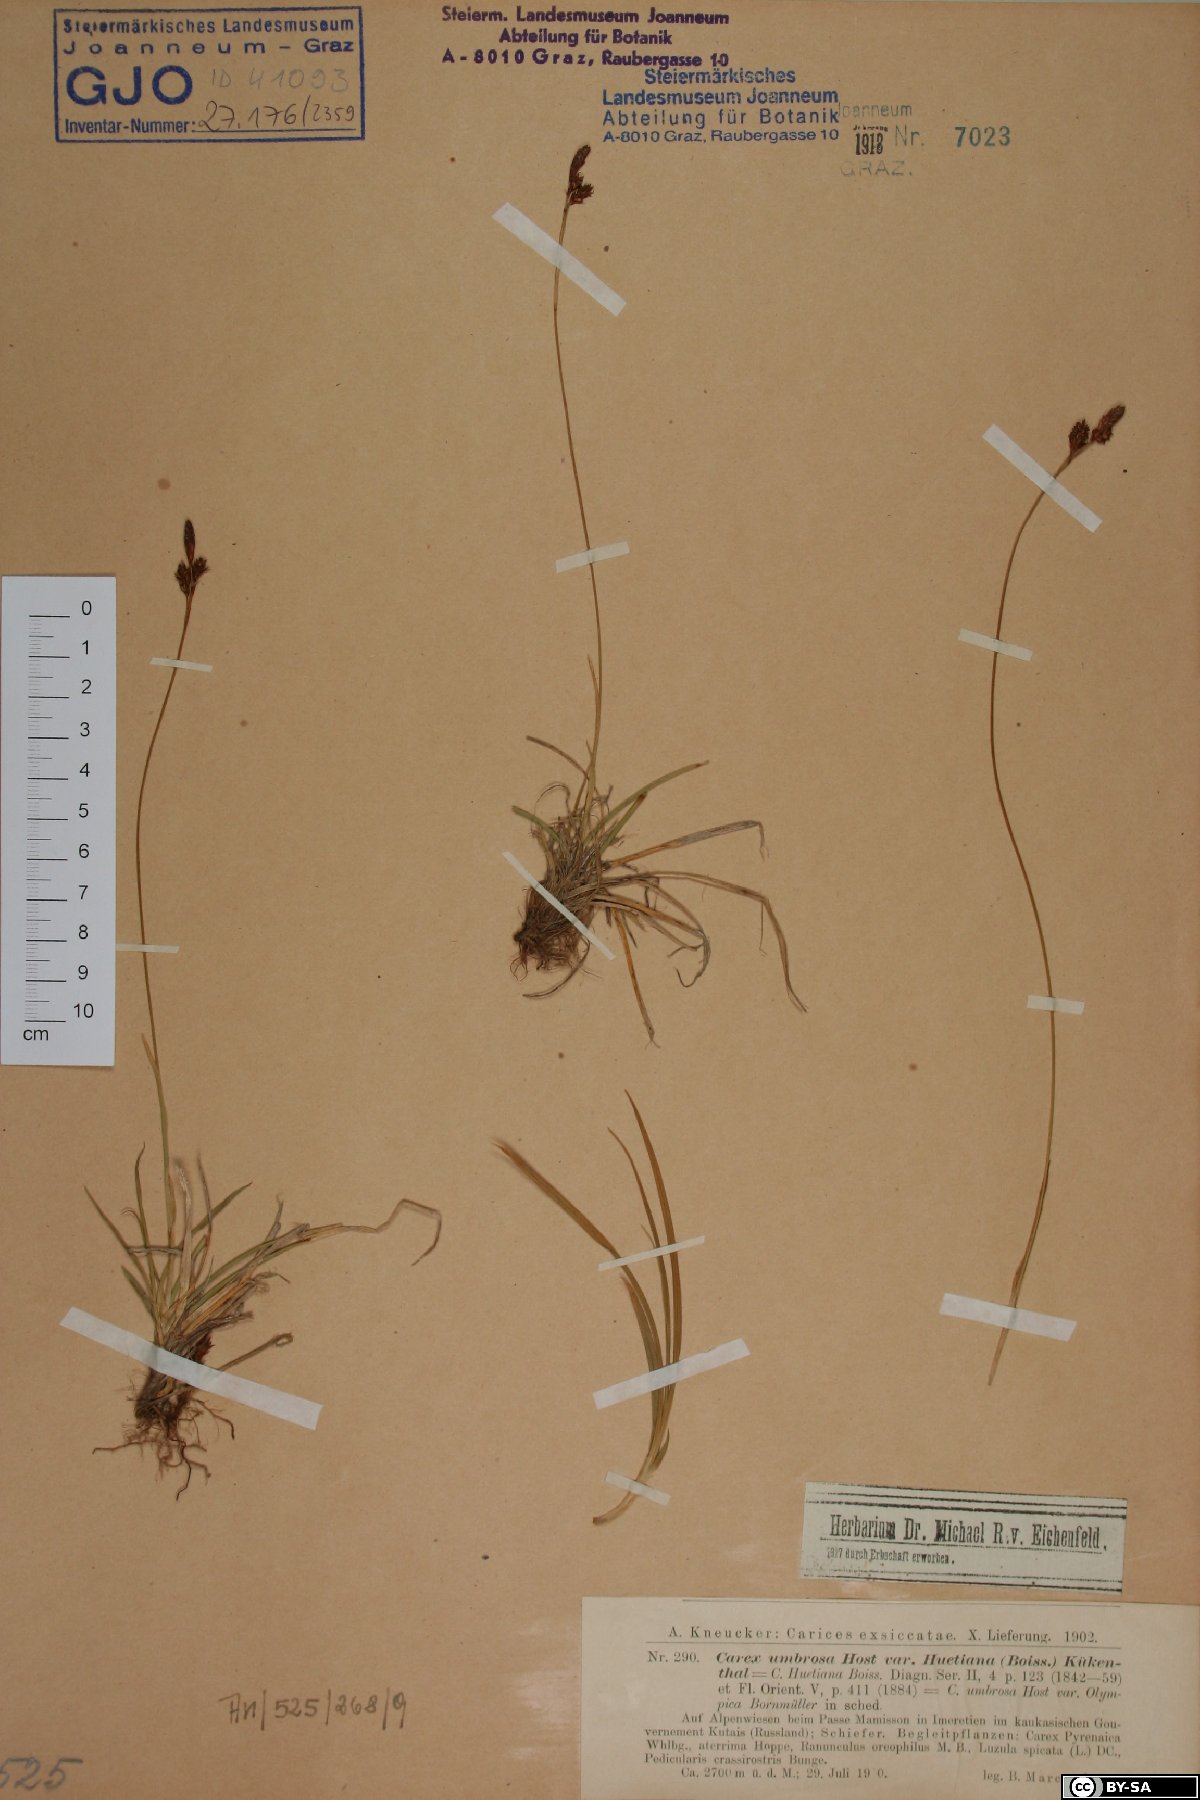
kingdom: Plantae
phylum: Tracheophyta
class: Liliopsida
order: Poales
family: Cyperaceae
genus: Carex
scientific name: Carex umbrosa
